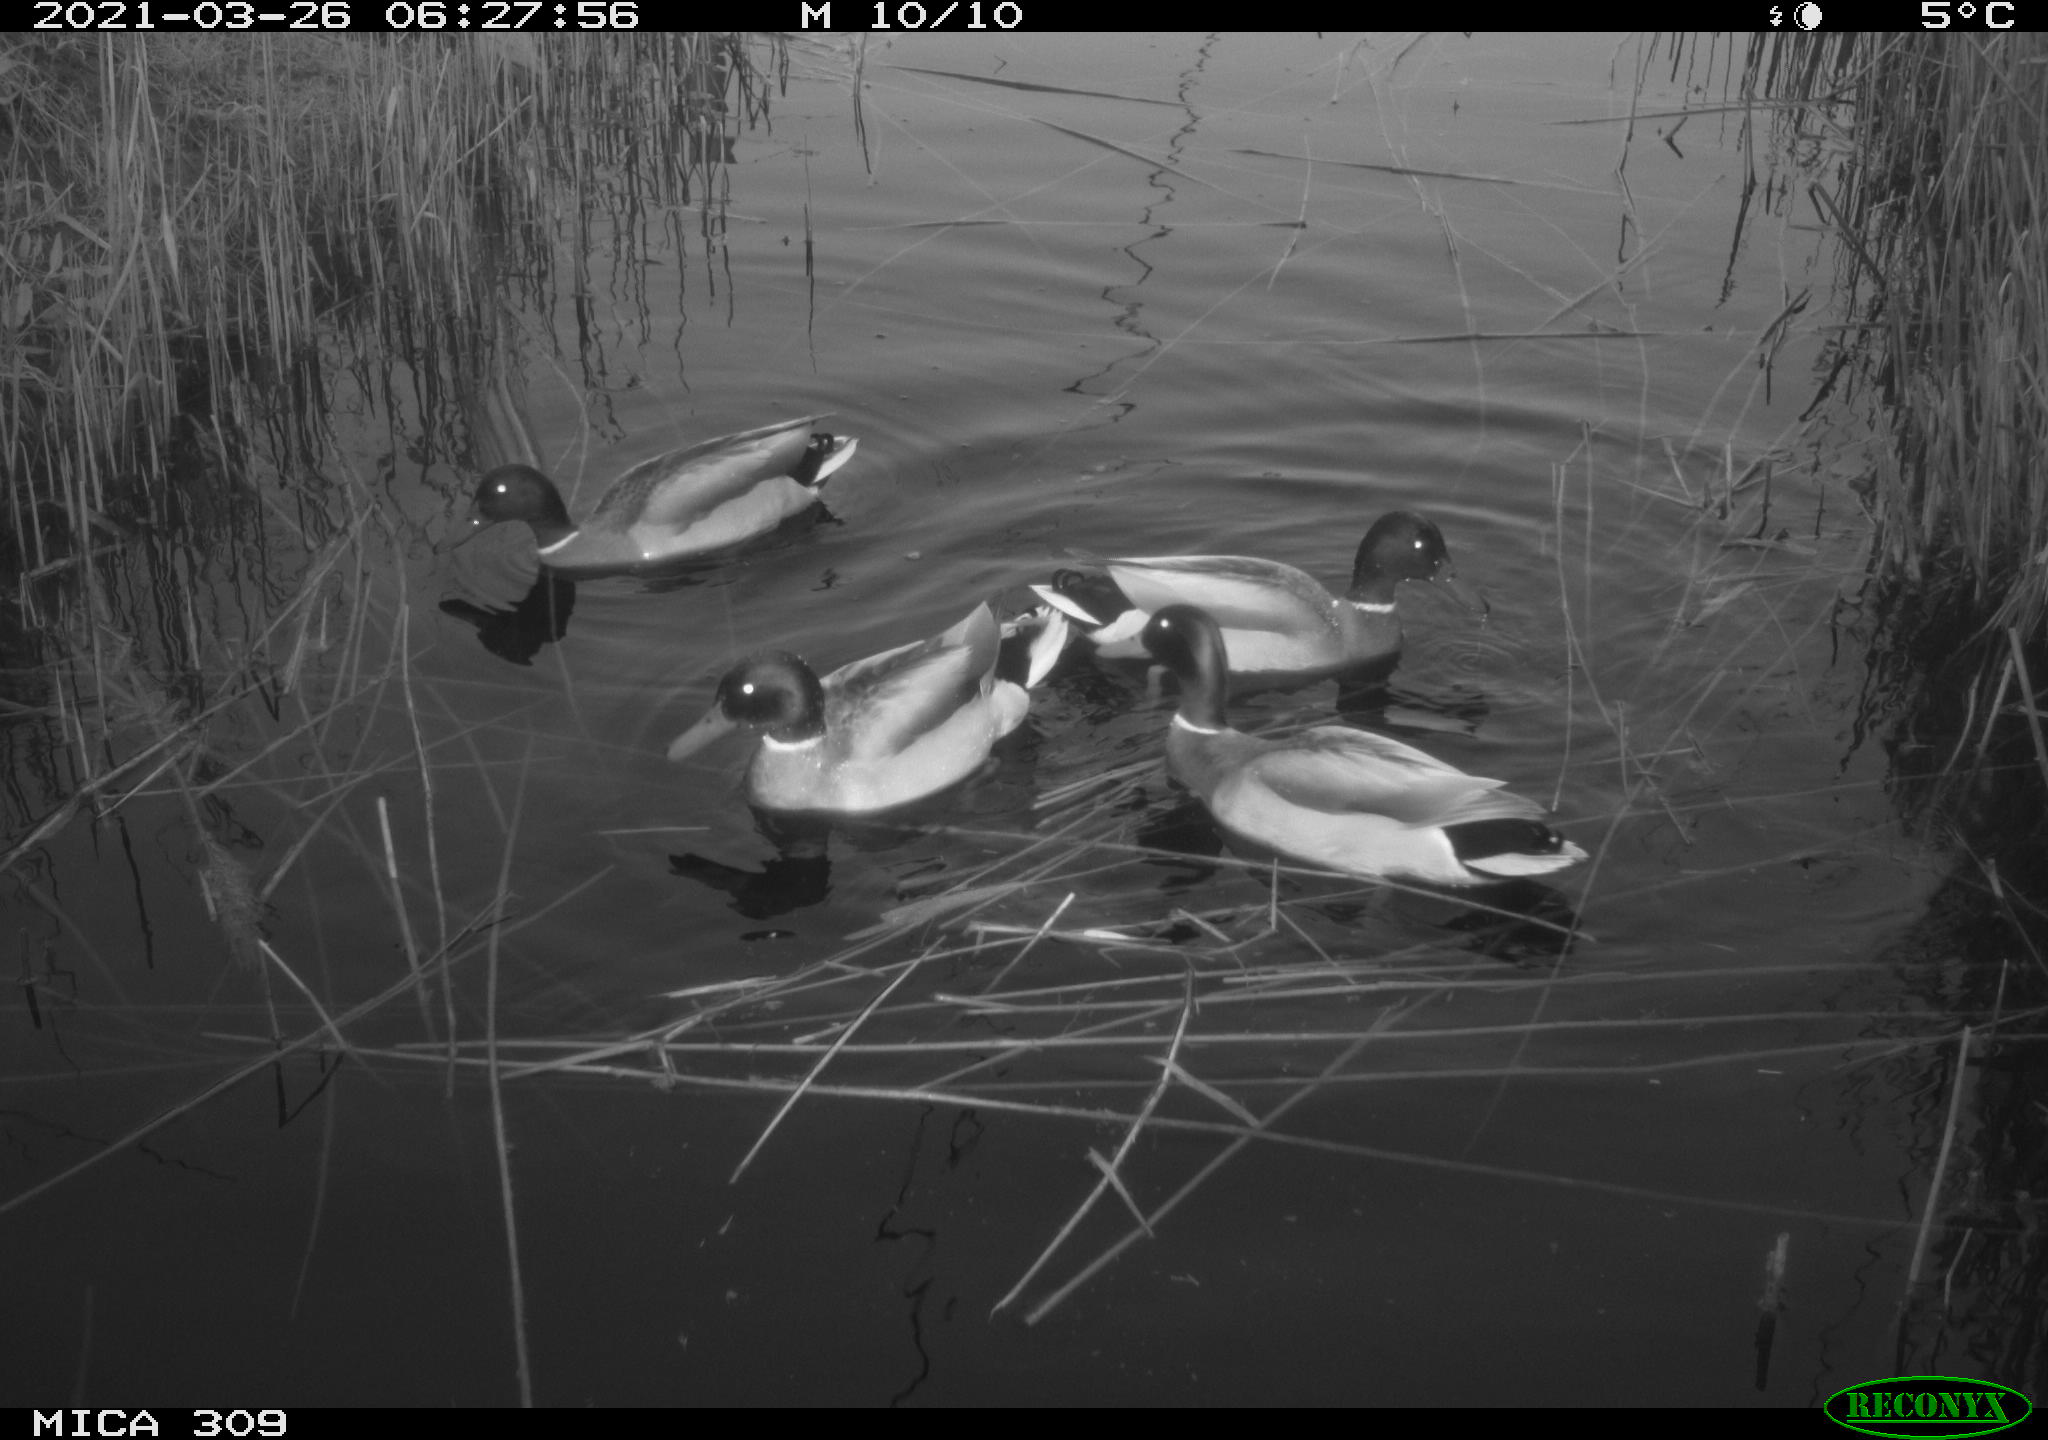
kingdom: Animalia
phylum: Chordata
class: Aves
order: Anseriformes
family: Anatidae
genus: Anas
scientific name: Anas platyrhynchos
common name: Mallard
